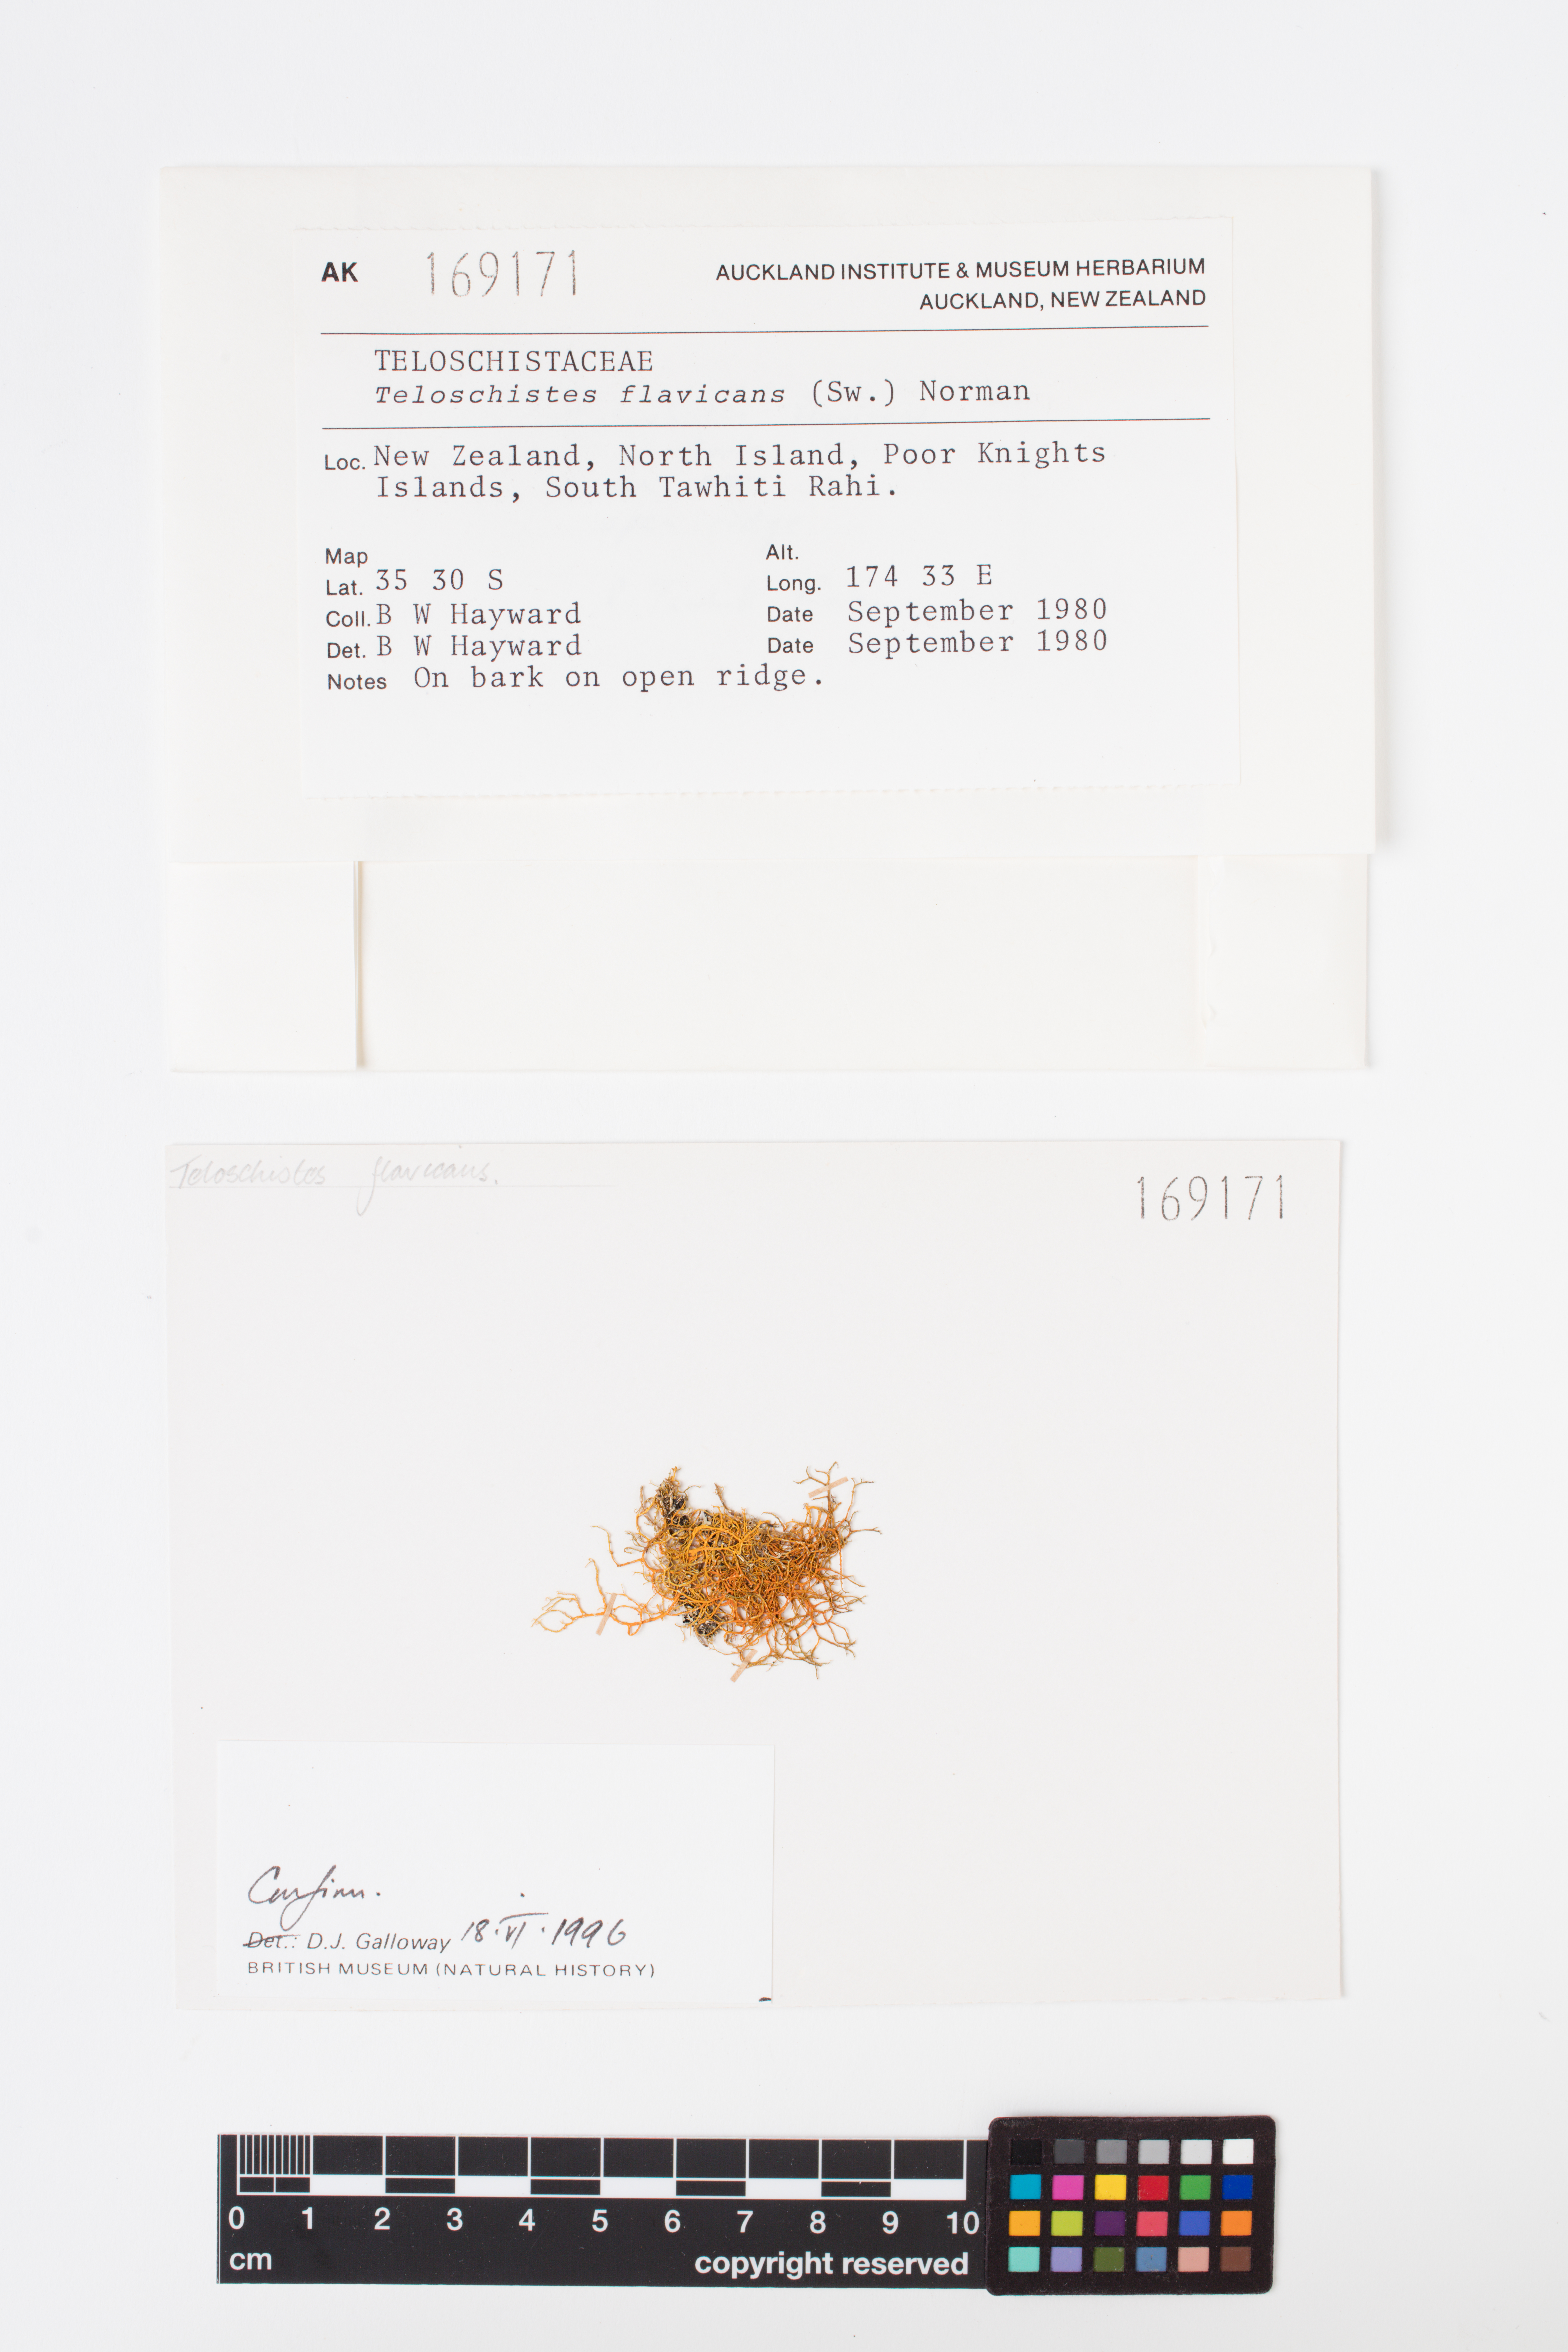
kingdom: Fungi
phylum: Ascomycota
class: Lecanoromycetes
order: Teloschistales
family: Teloschistaceae
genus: Teloschistes
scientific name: Teloschistes flavicans
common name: Golden hair-lichen
